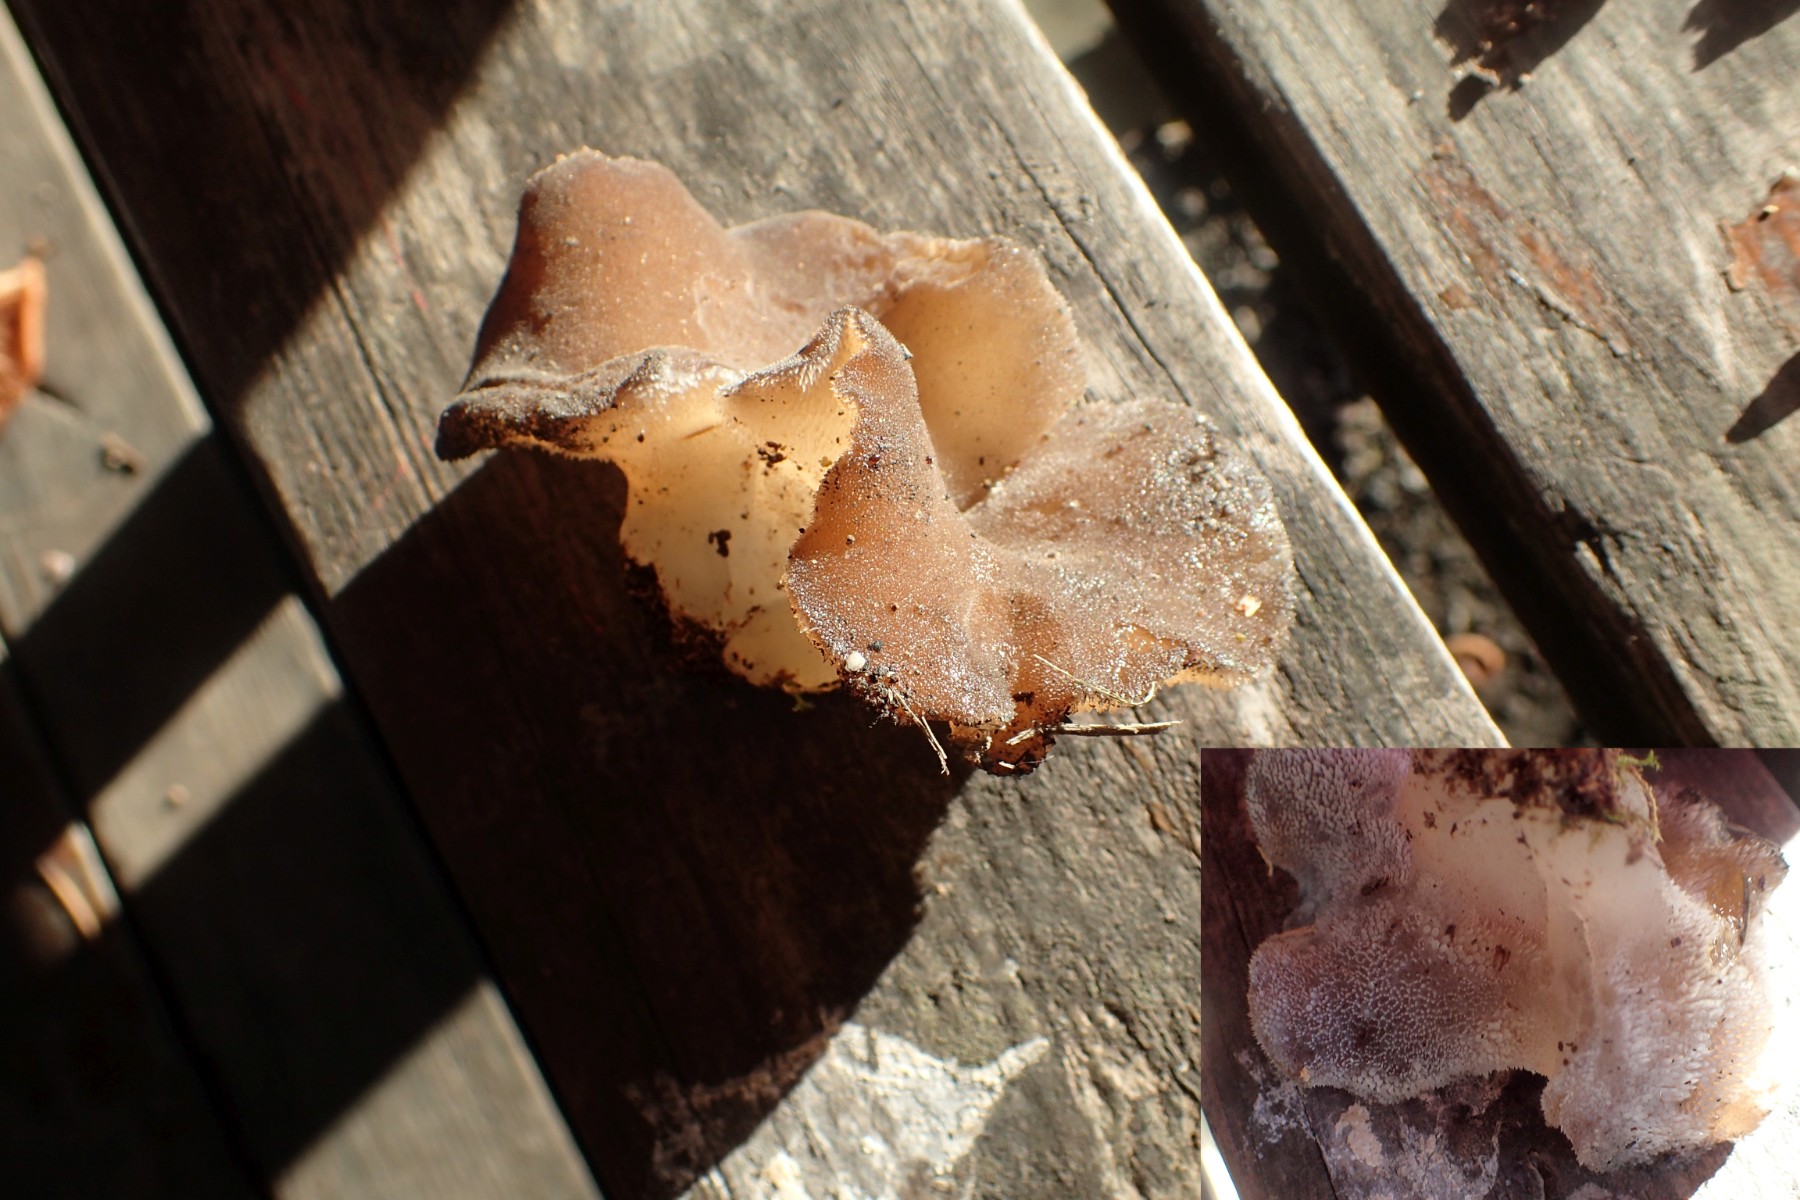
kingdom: Fungi
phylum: Basidiomycota
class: Agaricomycetes
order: Auriculariales
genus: Pseudohydnum
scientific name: Pseudohydnum gelatinosum
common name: bævretand
